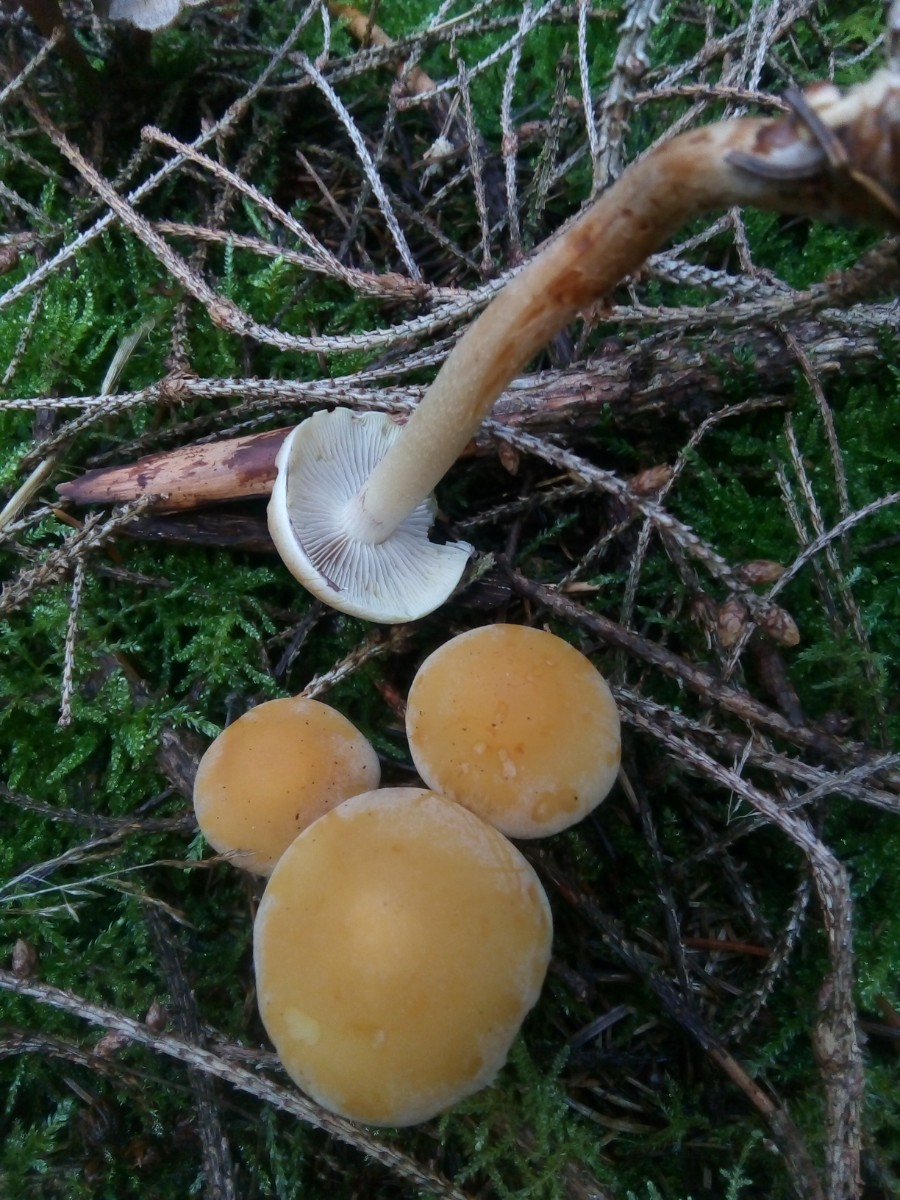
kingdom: Fungi
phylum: Basidiomycota
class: Agaricomycetes
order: Agaricales
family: Strophariaceae
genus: Hypholoma
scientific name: Hypholoma capnoides
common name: gran-svovlhat
